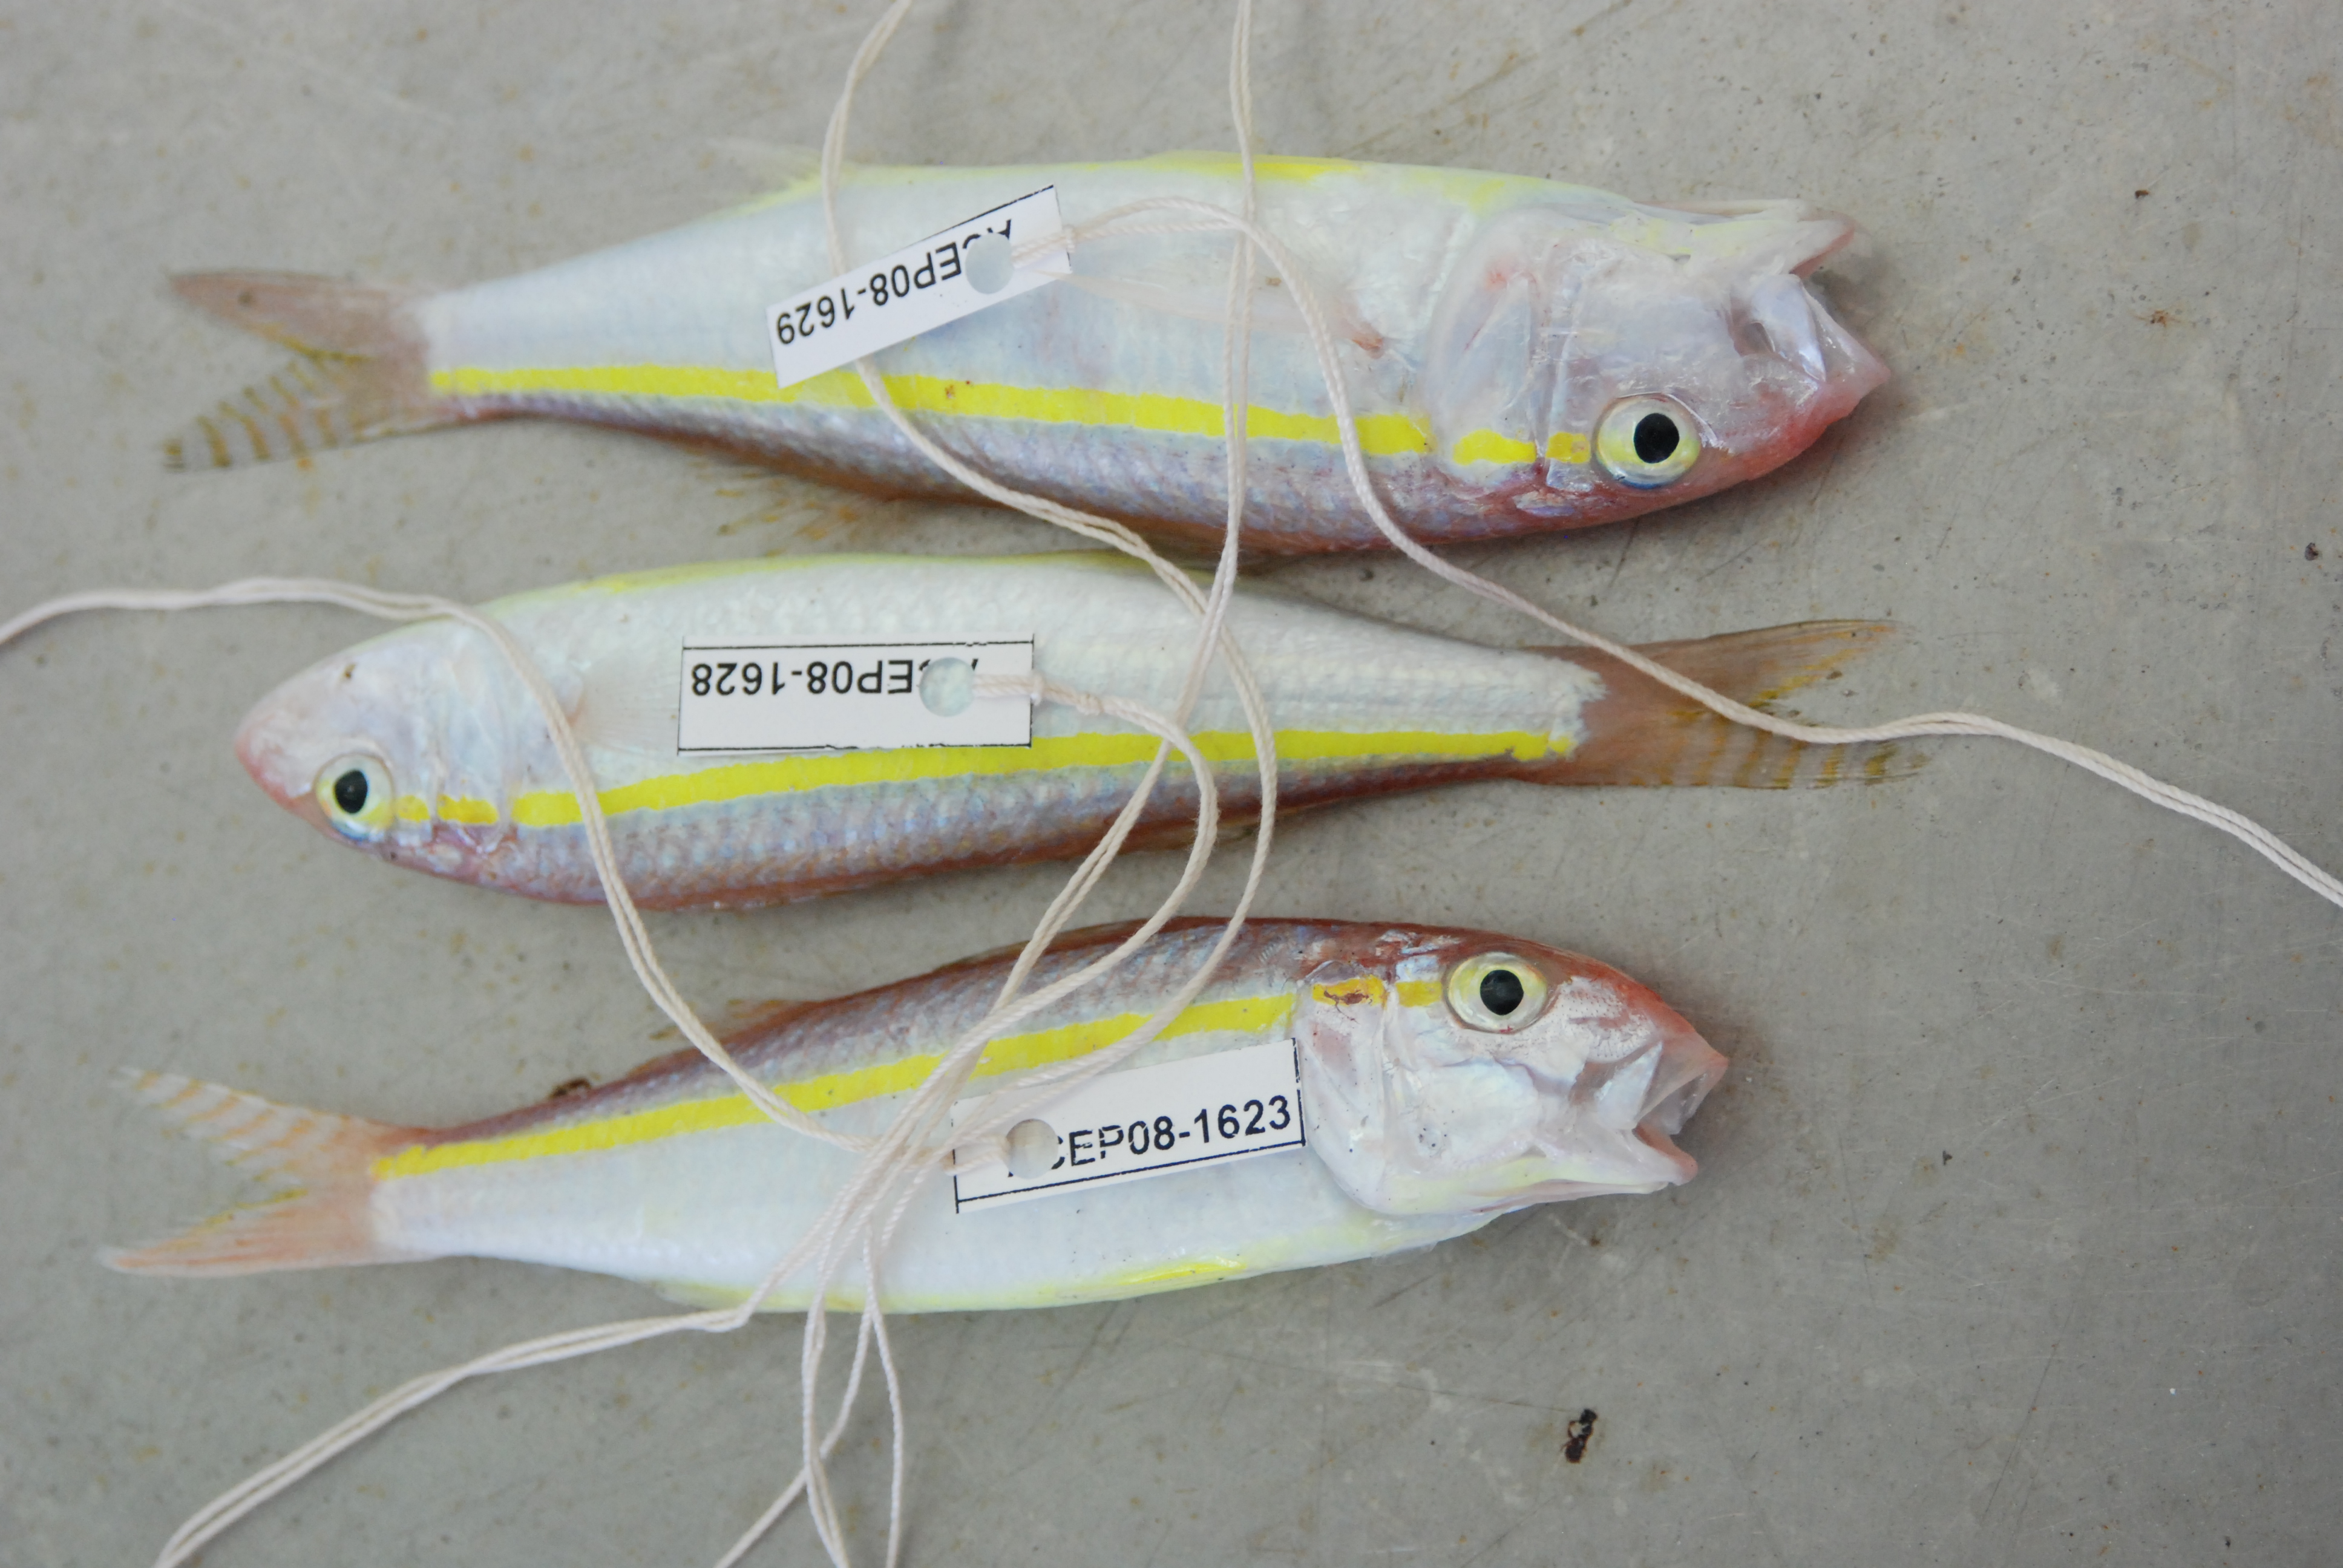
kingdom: Animalia
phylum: Chordata
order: Perciformes
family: Mullidae
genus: Upeneus
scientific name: Upeneus moluccensis
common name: Goldband goatfish
